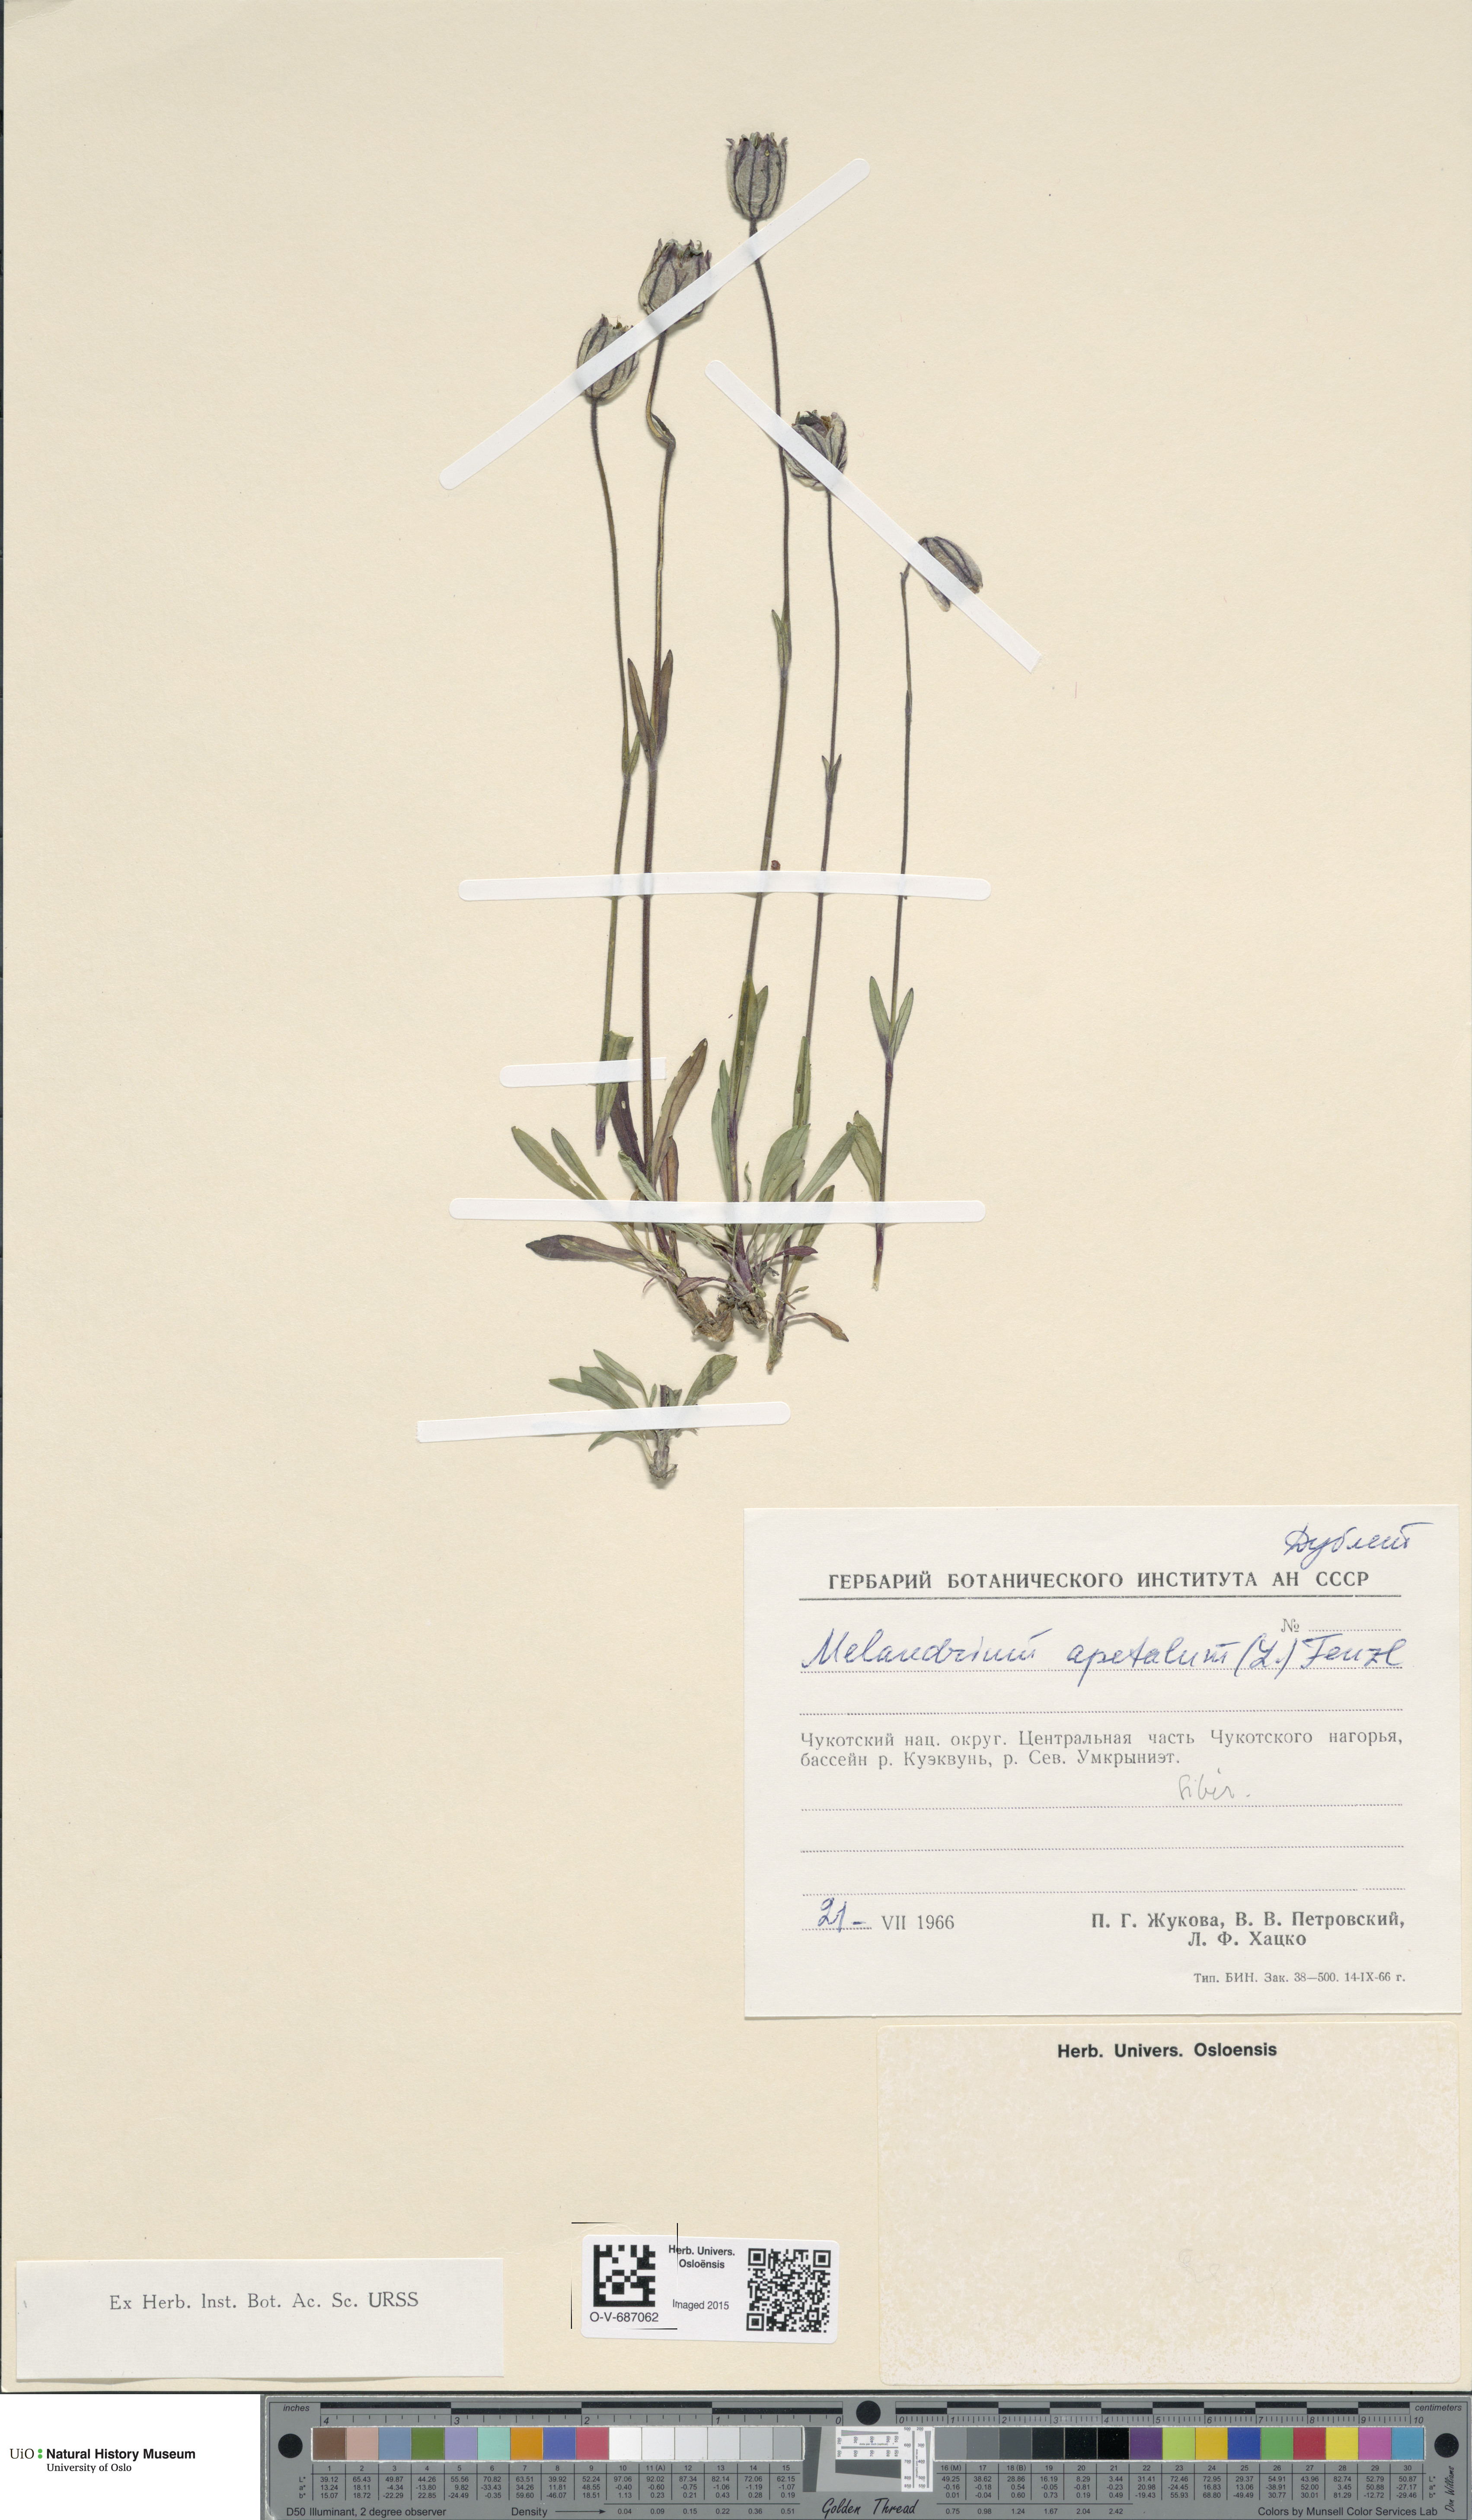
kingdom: Plantae
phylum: Tracheophyta
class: Magnoliopsida
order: Caryophyllales
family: Caryophyllaceae
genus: Silene
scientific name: Silene wahlbergella
